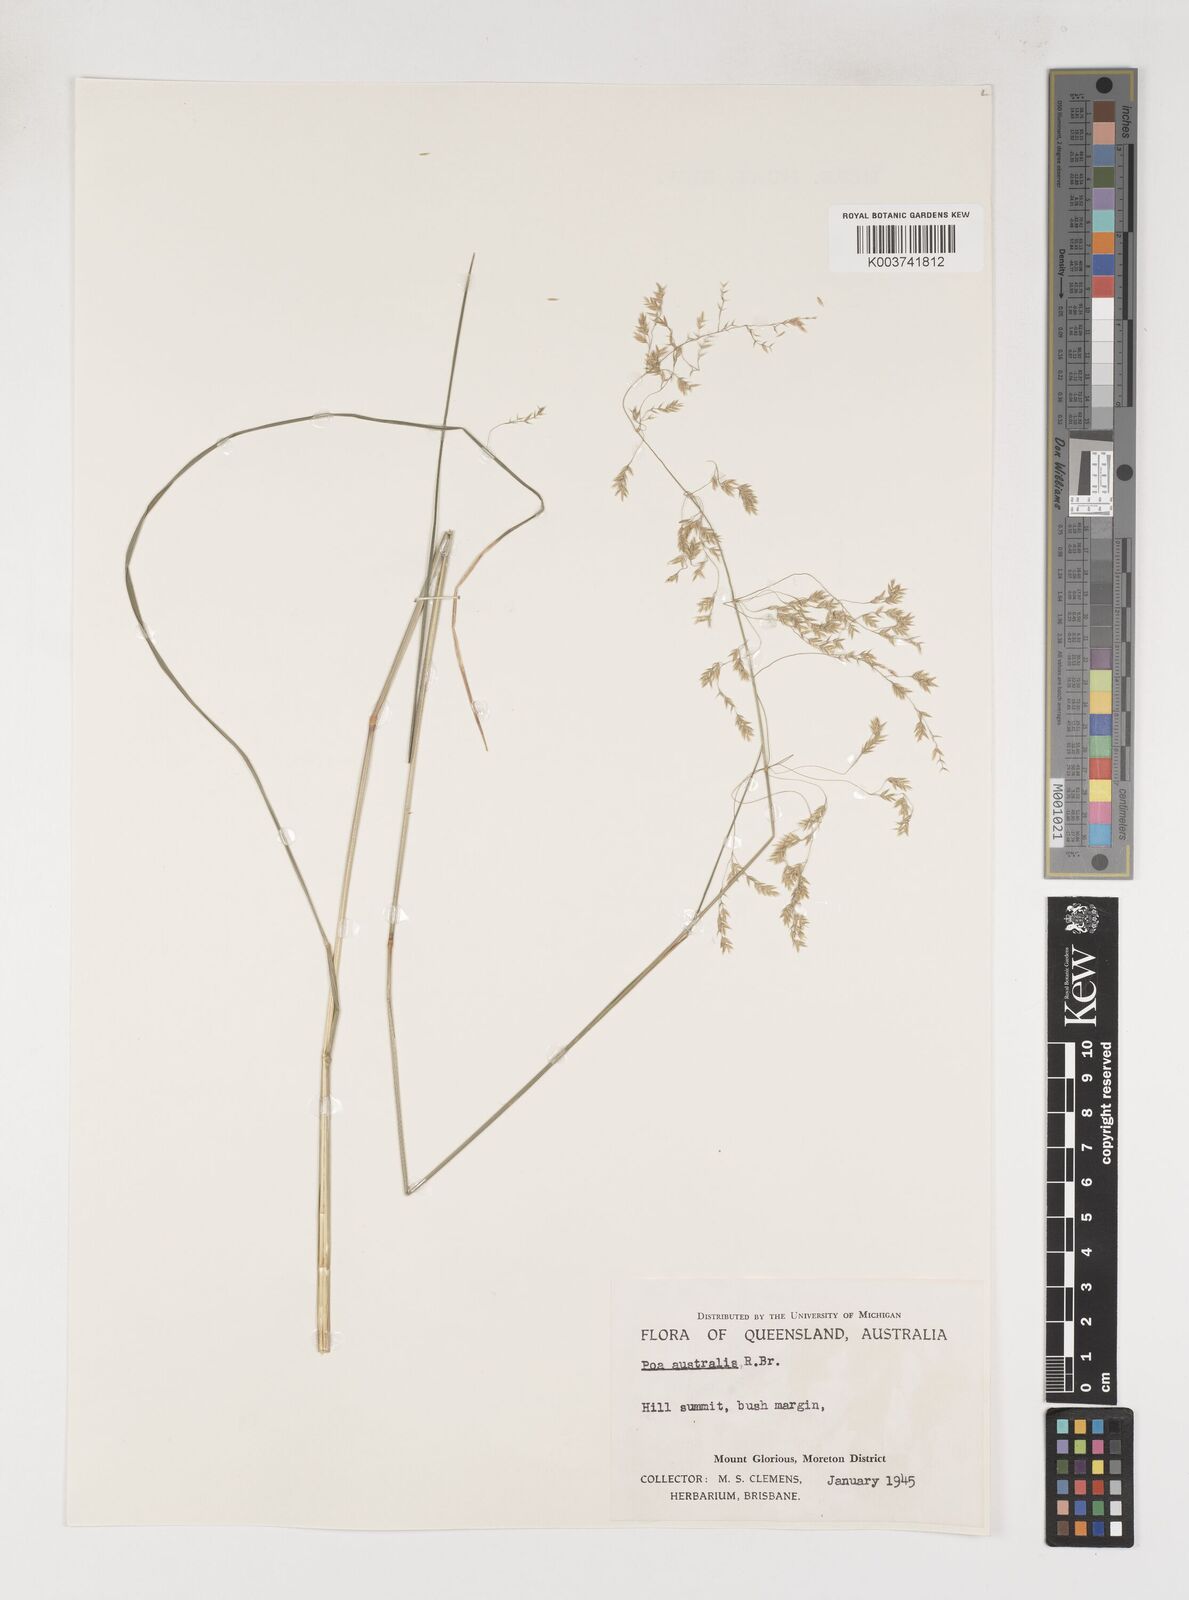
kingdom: Plantae
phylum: Tracheophyta
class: Liliopsida
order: Poales
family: Poaceae
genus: Poa
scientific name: Poa sieberiana
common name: Tussock poa
